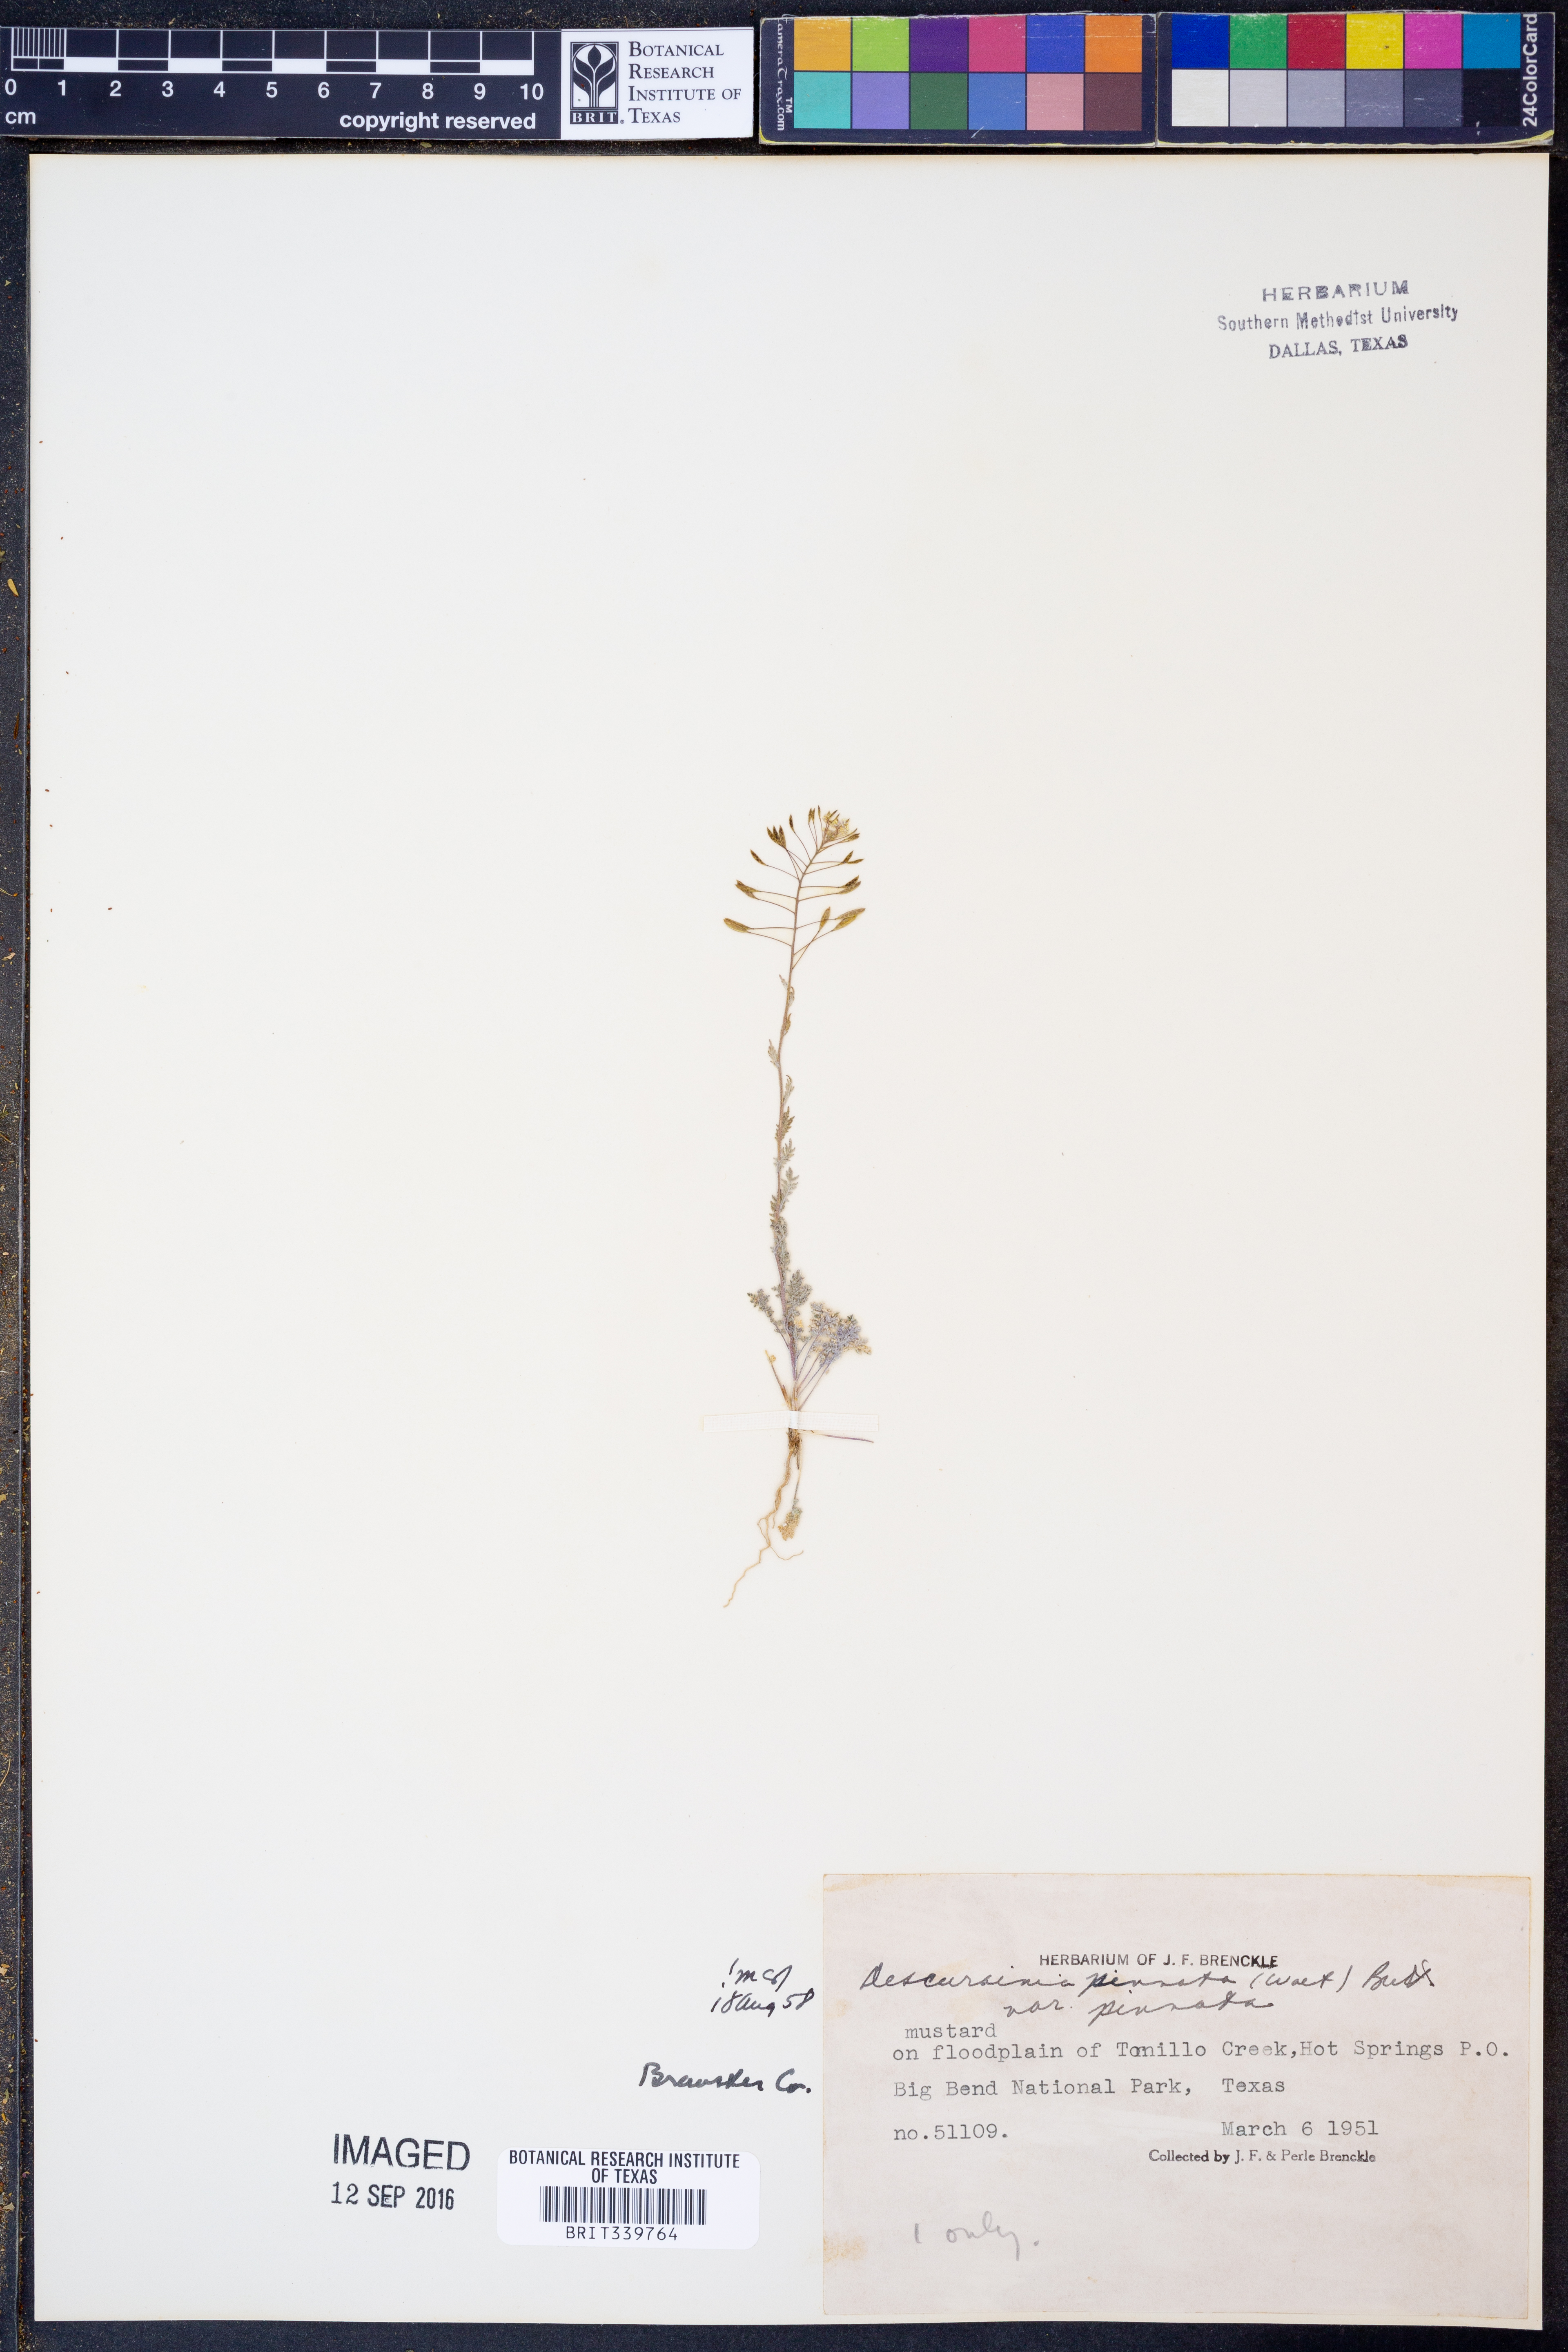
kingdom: Plantae
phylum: Tracheophyta
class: Magnoliopsida
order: Brassicales
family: Brassicaceae
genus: Descurainia
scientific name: Descurainia pinnata
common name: Western tansy mustard
